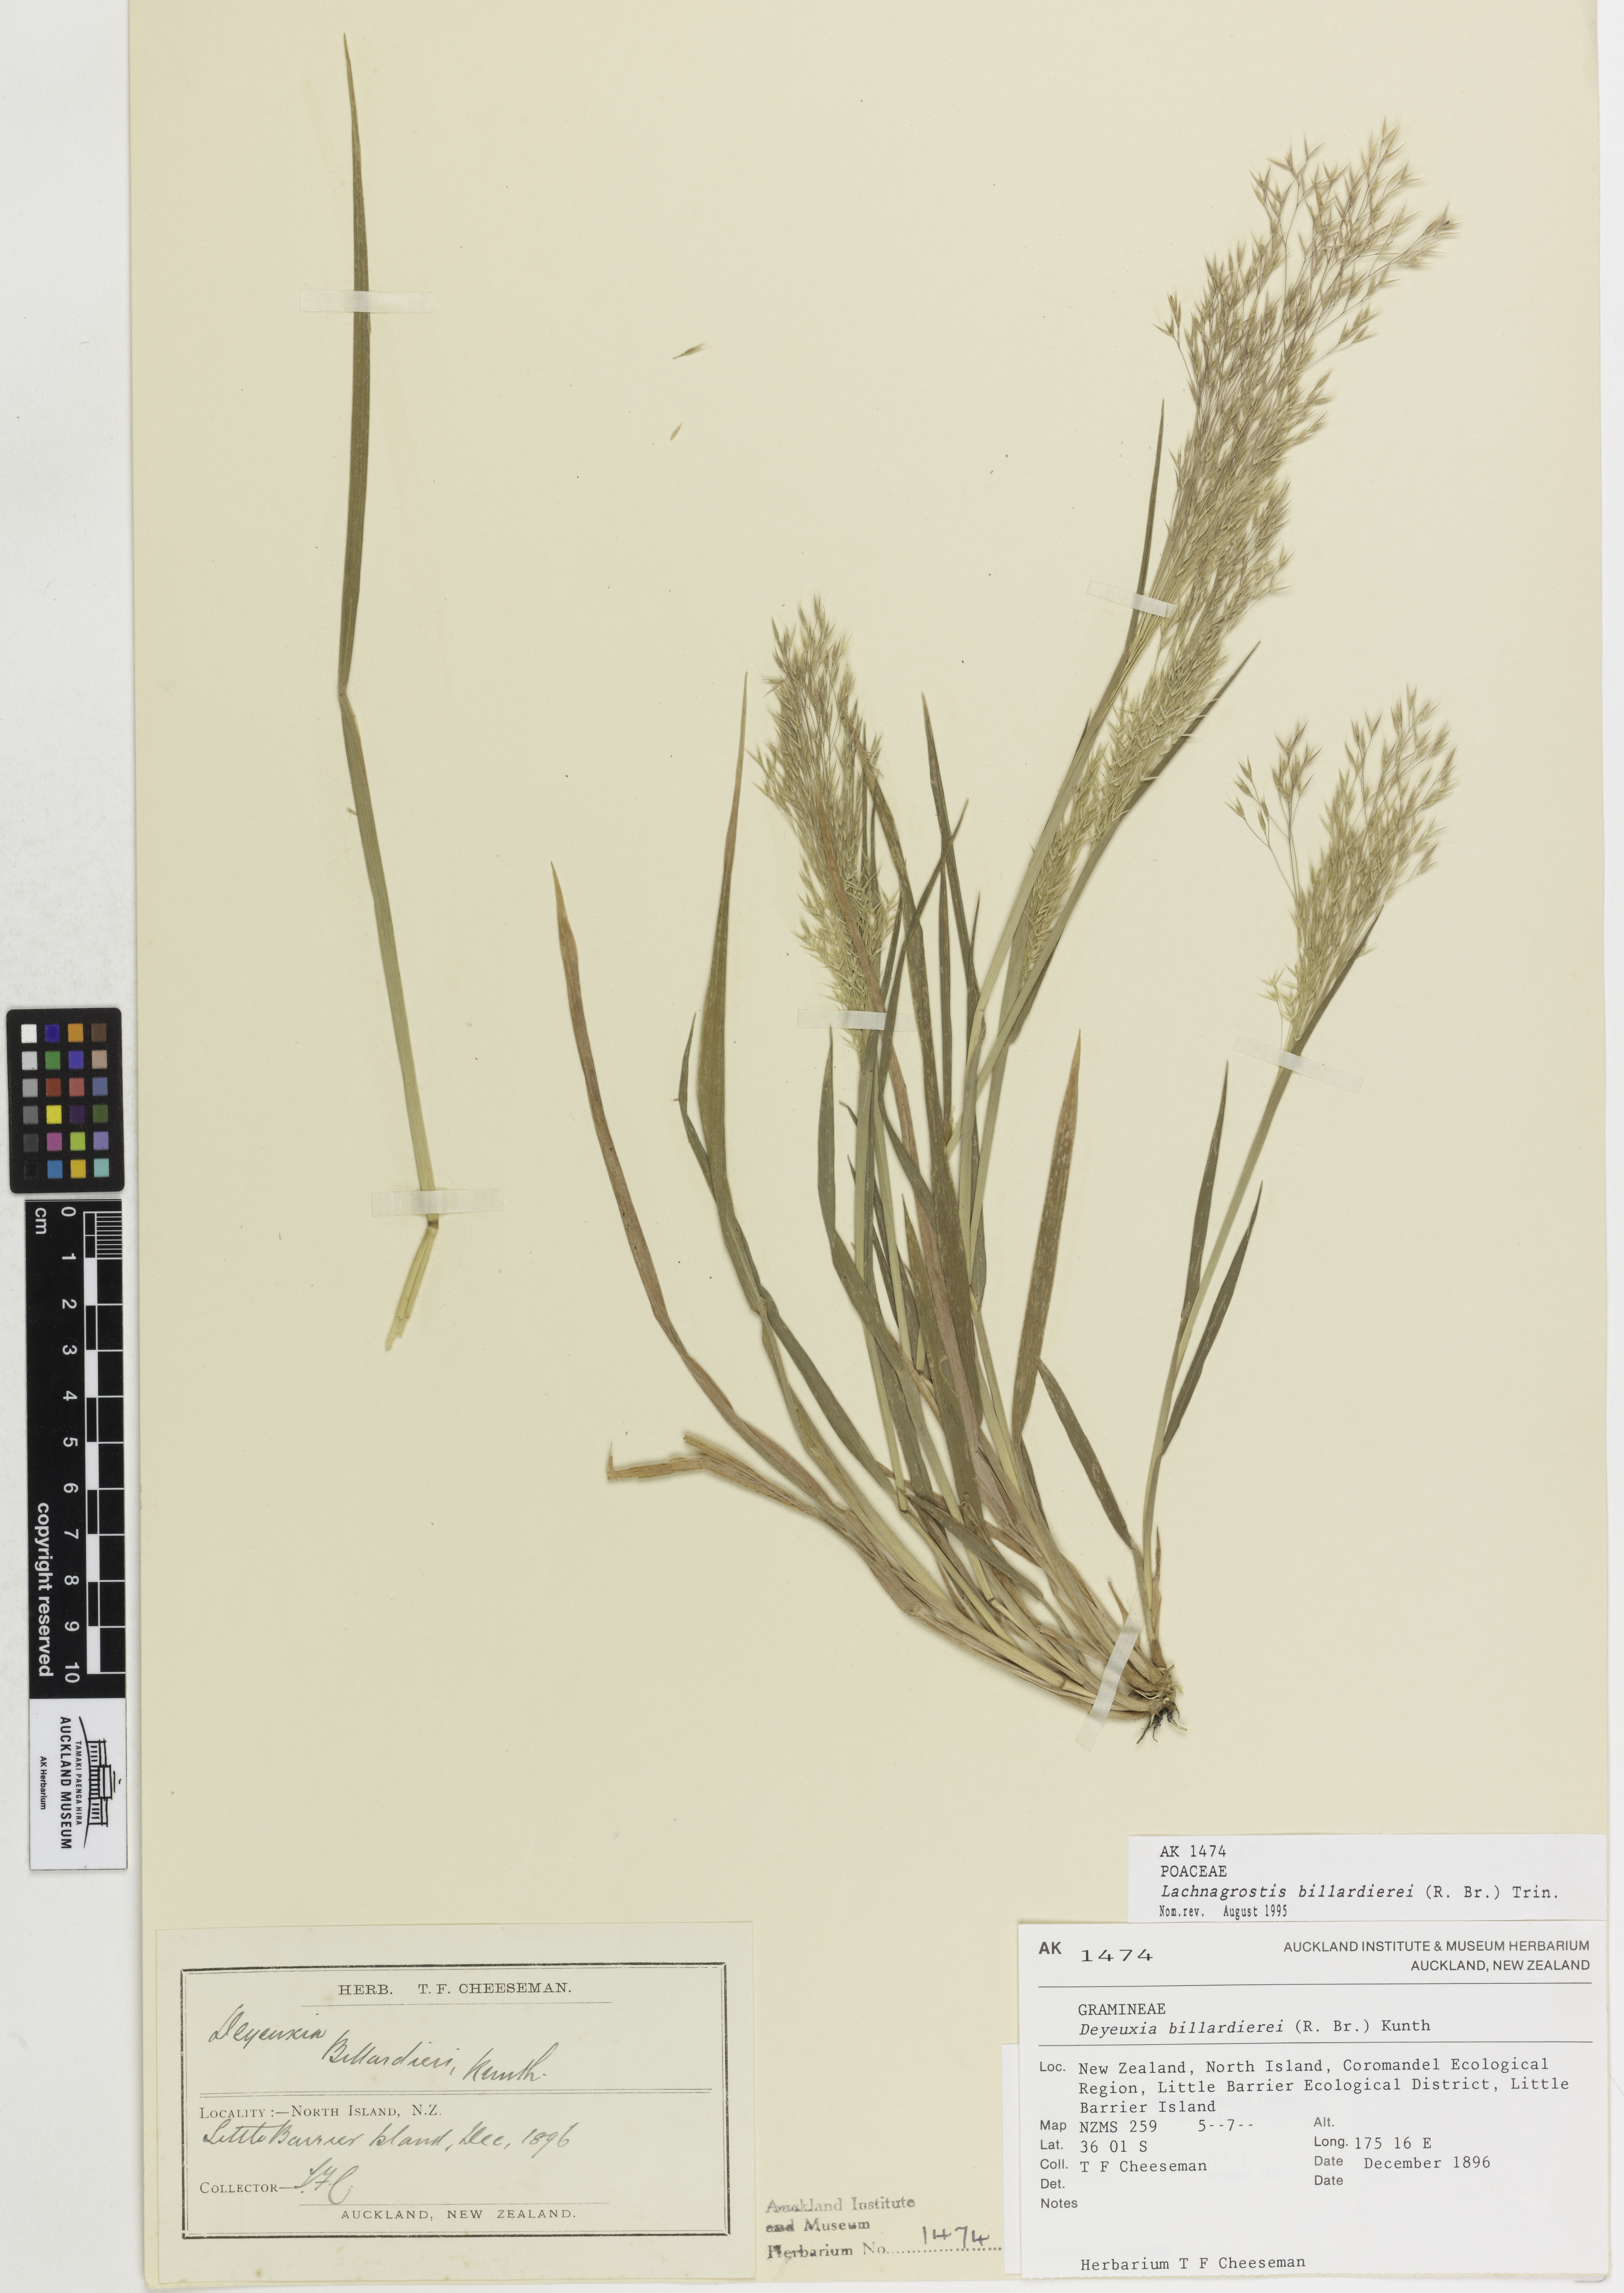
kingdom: Plantae
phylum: Tracheophyta
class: Liliopsida
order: Poales
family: Poaceae
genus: Lachnagrostis
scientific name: Lachnagrostis billardierei
